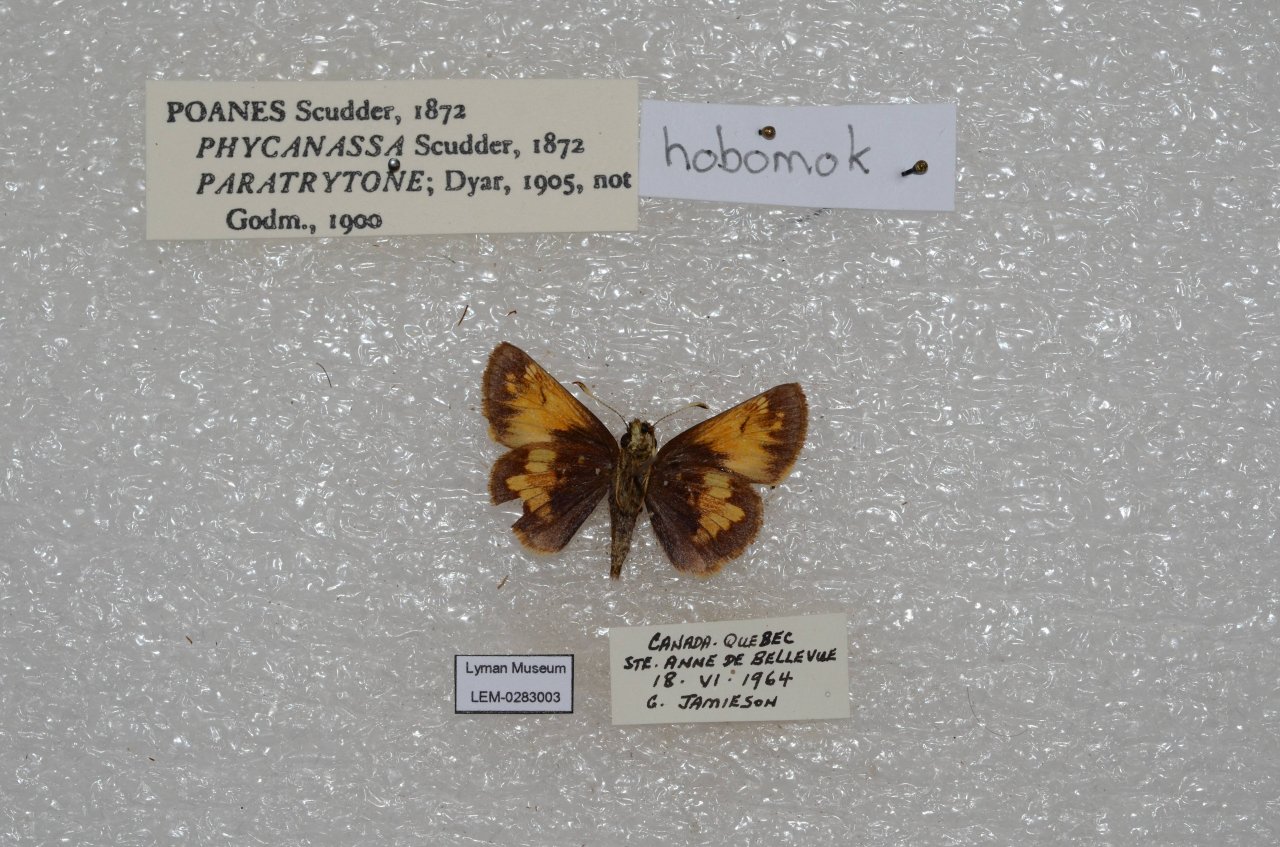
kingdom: Animalia
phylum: Arthropoda
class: Insecta
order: Lepidoptera
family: Hesperiidae
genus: Lon
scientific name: Lon hobomok
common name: Hobomok Skipper
